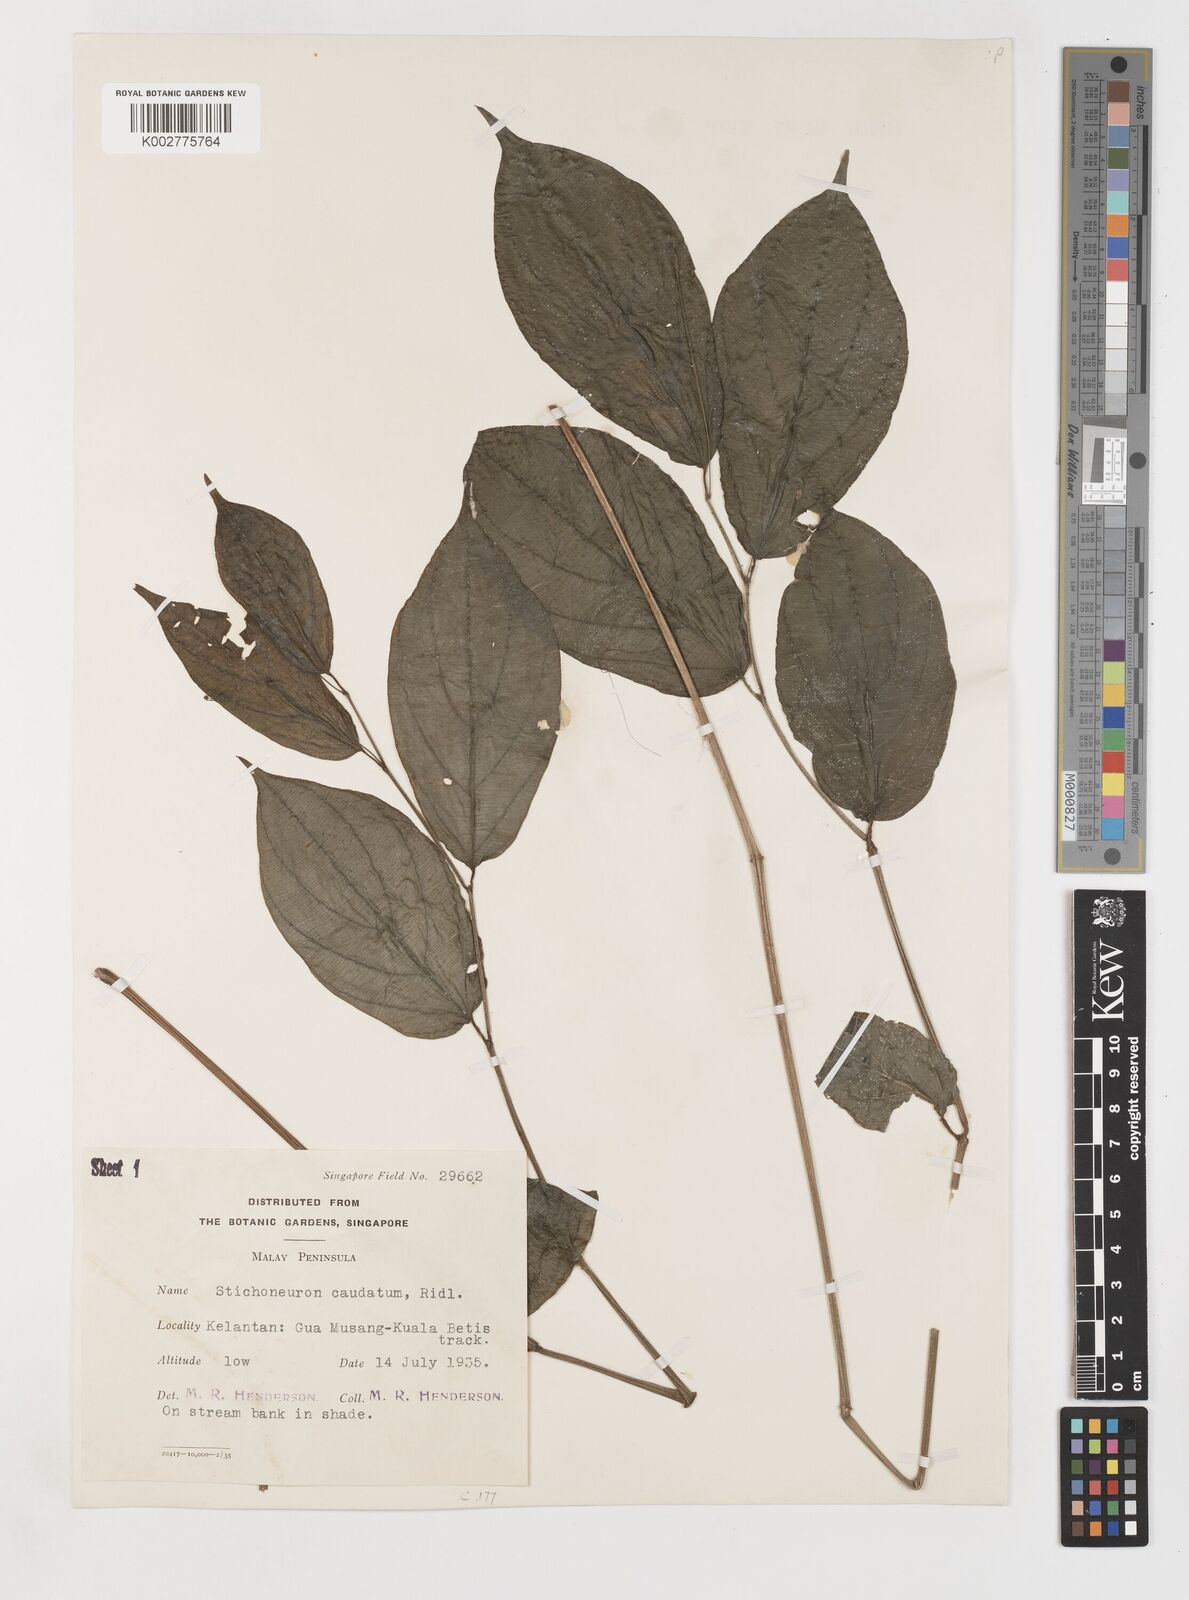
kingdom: Plantae
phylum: Tracheophyta
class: Liliopsida
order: Pandanales
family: Stemonaceae
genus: Stichoneuron
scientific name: Stichoneuron caudatum
